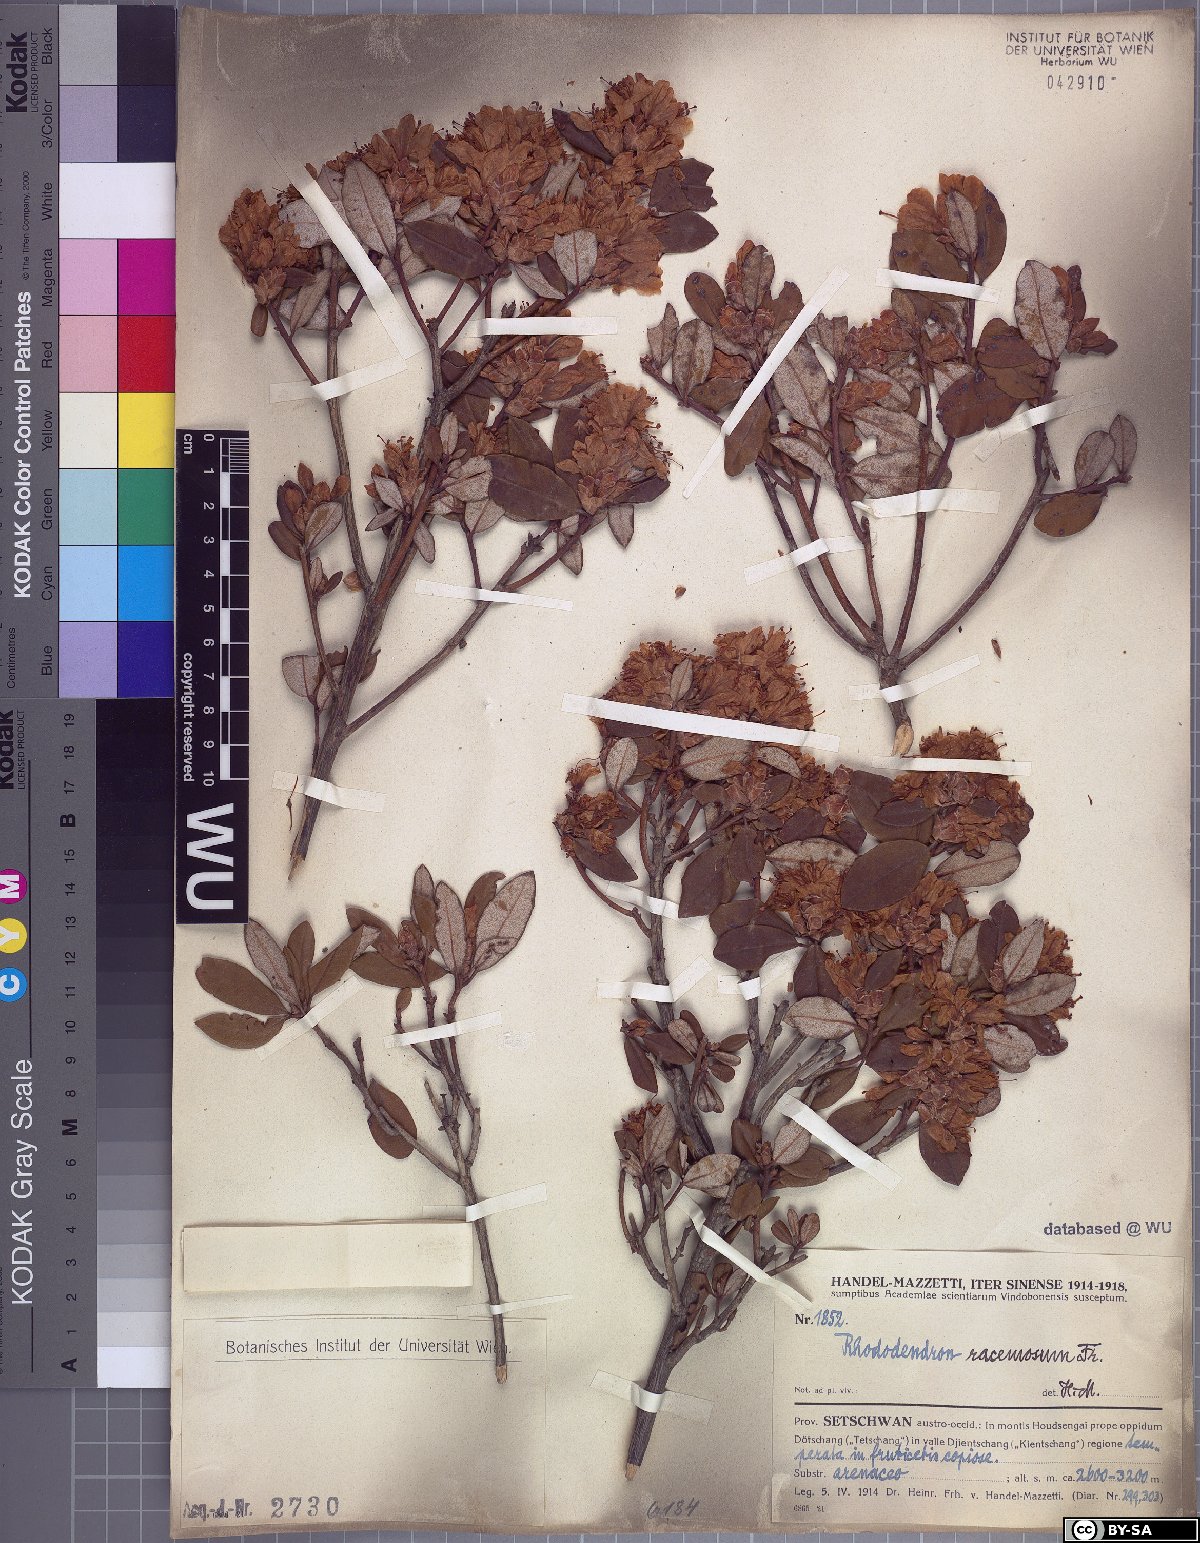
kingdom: Plantae
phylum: Tracheophyta
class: Magnoliopsida
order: Ericales
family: Ericaceae
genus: Rhododendron
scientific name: Rhododendron racemosum
